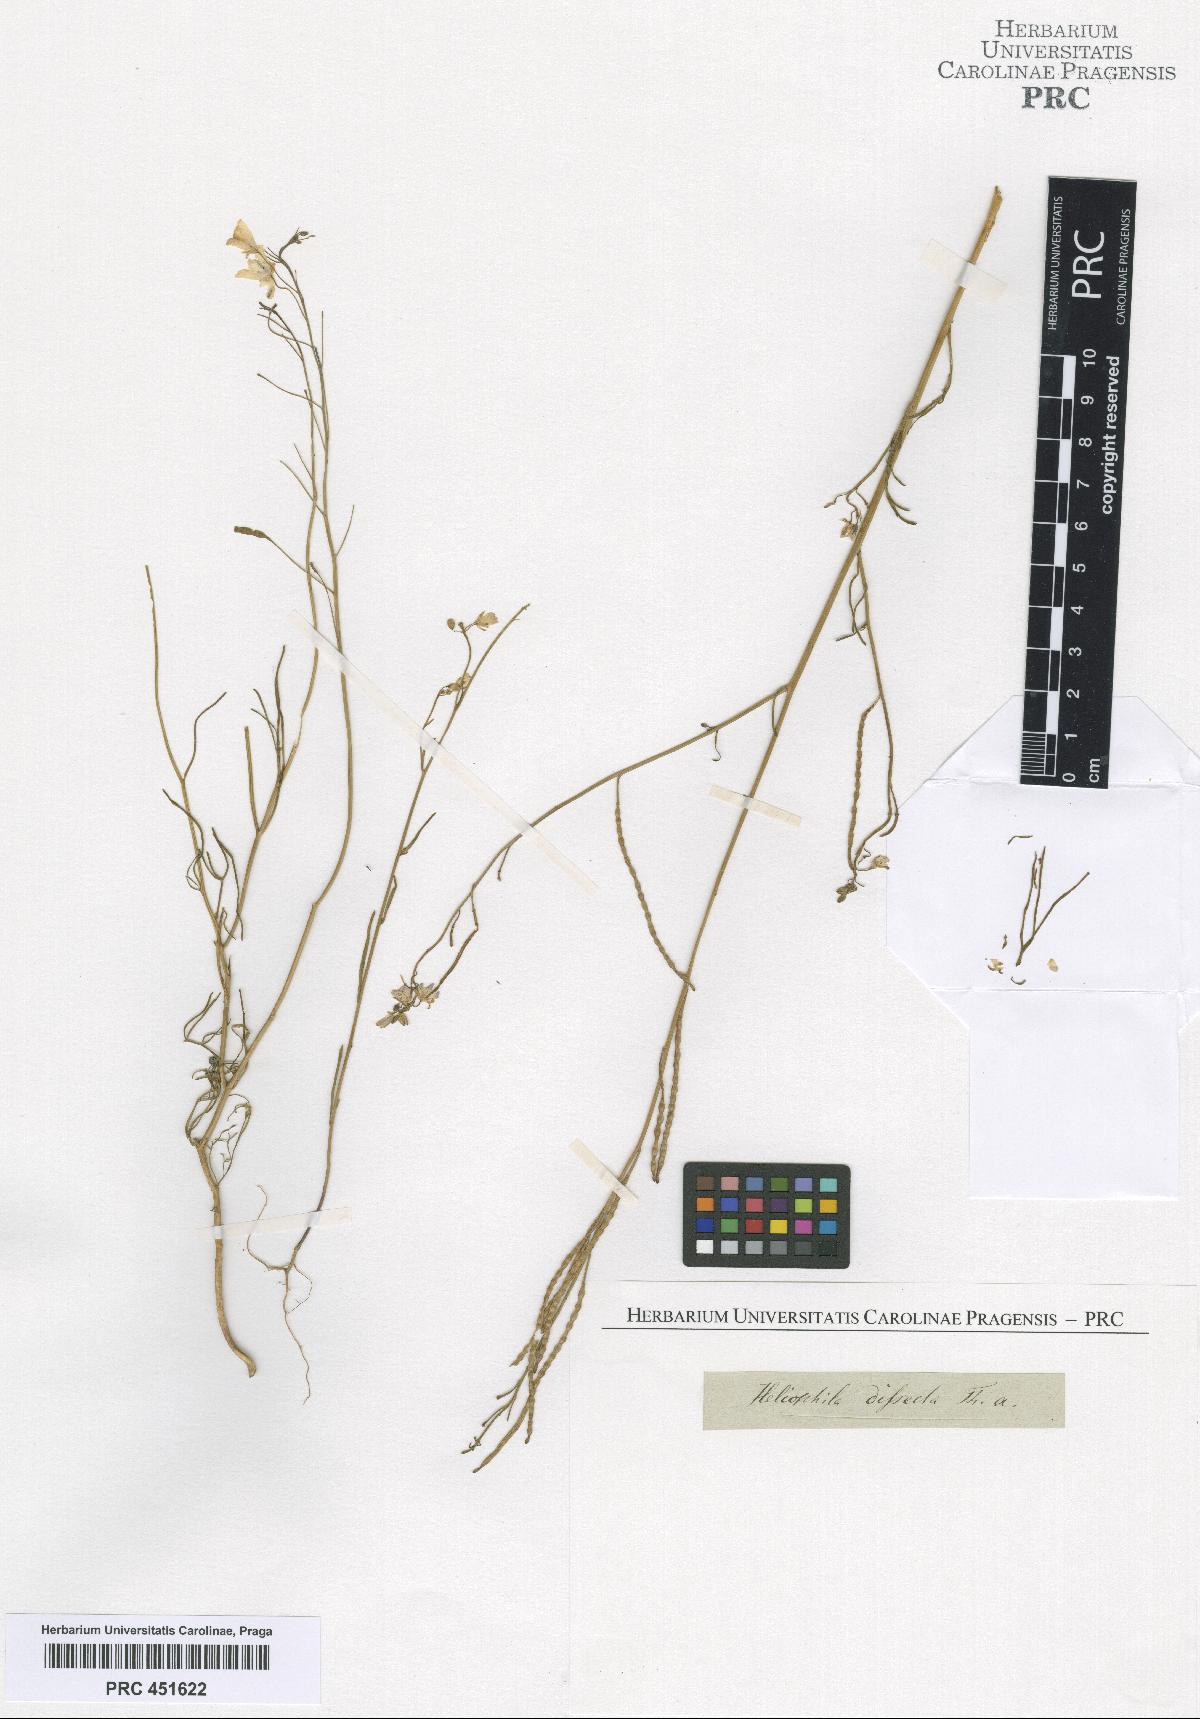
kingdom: Plantae
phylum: Tracheophyta
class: Magnoliopsida
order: Brassicales
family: Brassicaceae
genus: Heliophila
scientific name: Heliophila dissecta
